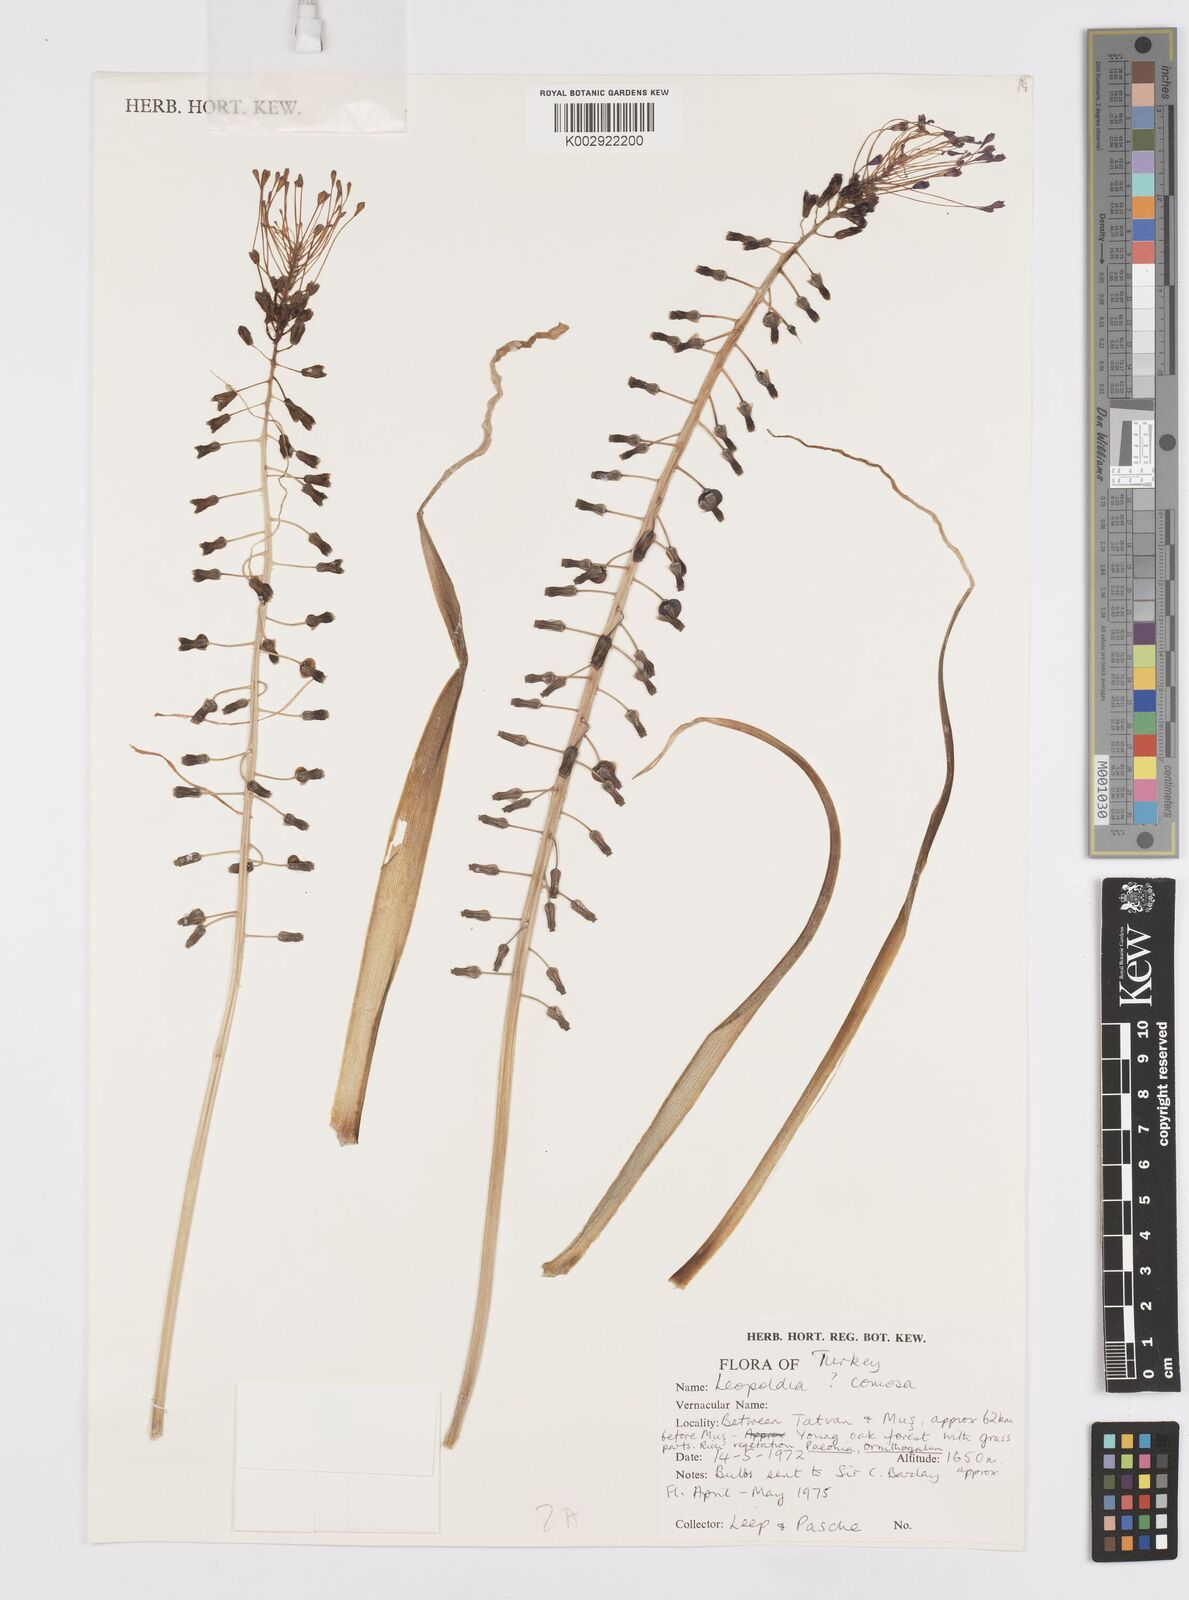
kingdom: Plantae
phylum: Tracheophyta
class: Liliopsida
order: Asparagales
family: Asparagaceae
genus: Muscari
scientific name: Muscari comosum
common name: Tassel hyacinth
